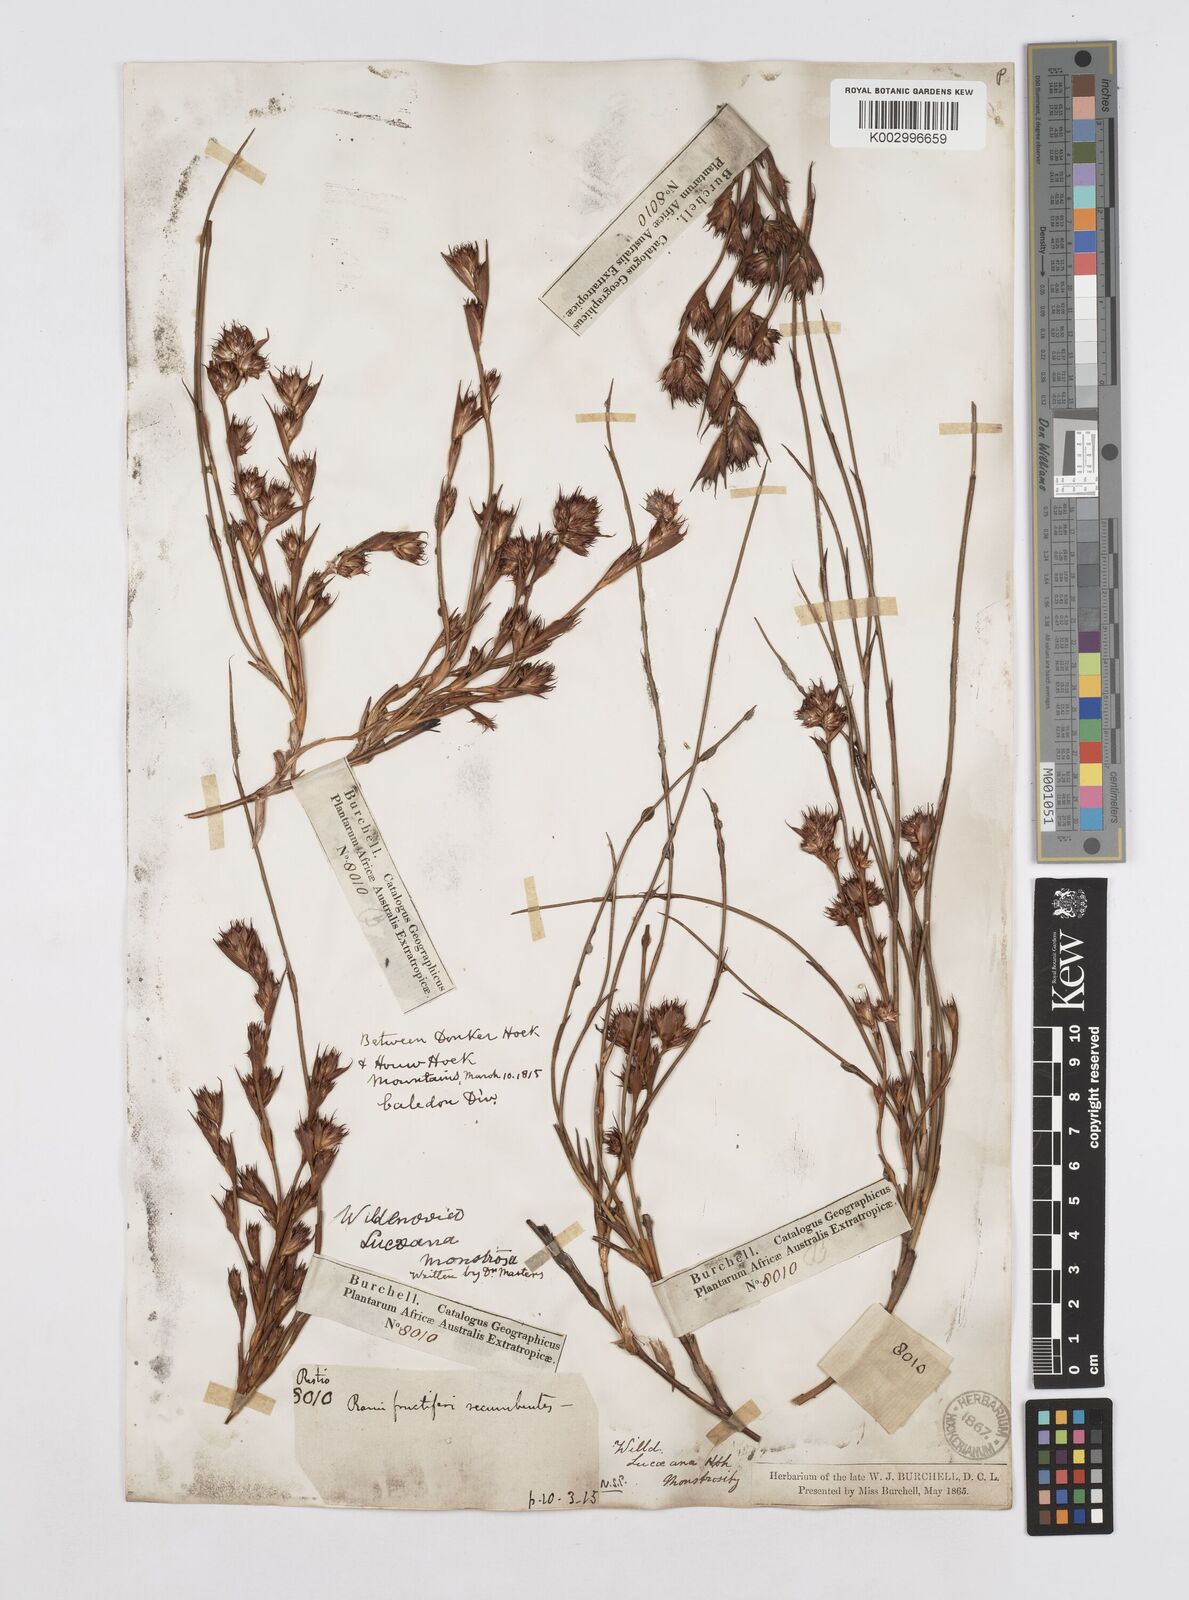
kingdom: Plantae
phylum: Tracheophyta
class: Liliopsida
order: Poales
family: Restionaceae
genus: Willdenowia
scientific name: Willdenowia glomerata
